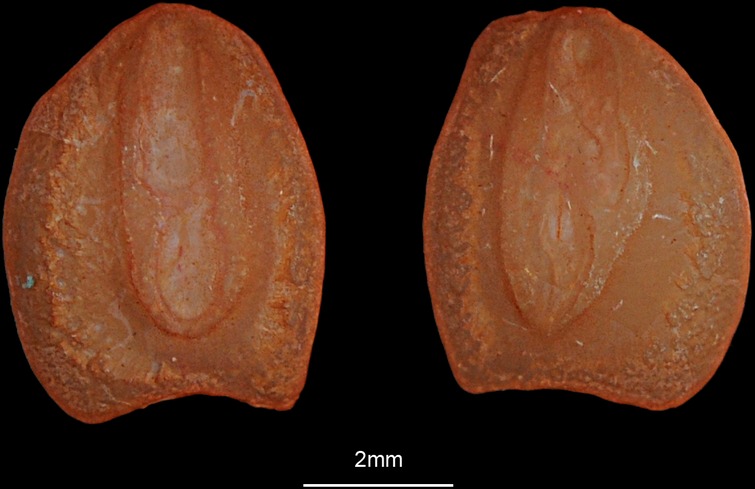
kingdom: Animalia
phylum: Chordata
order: Pleuronectiformes
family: Soleidae
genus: Solea
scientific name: Solea solea
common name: Sole
